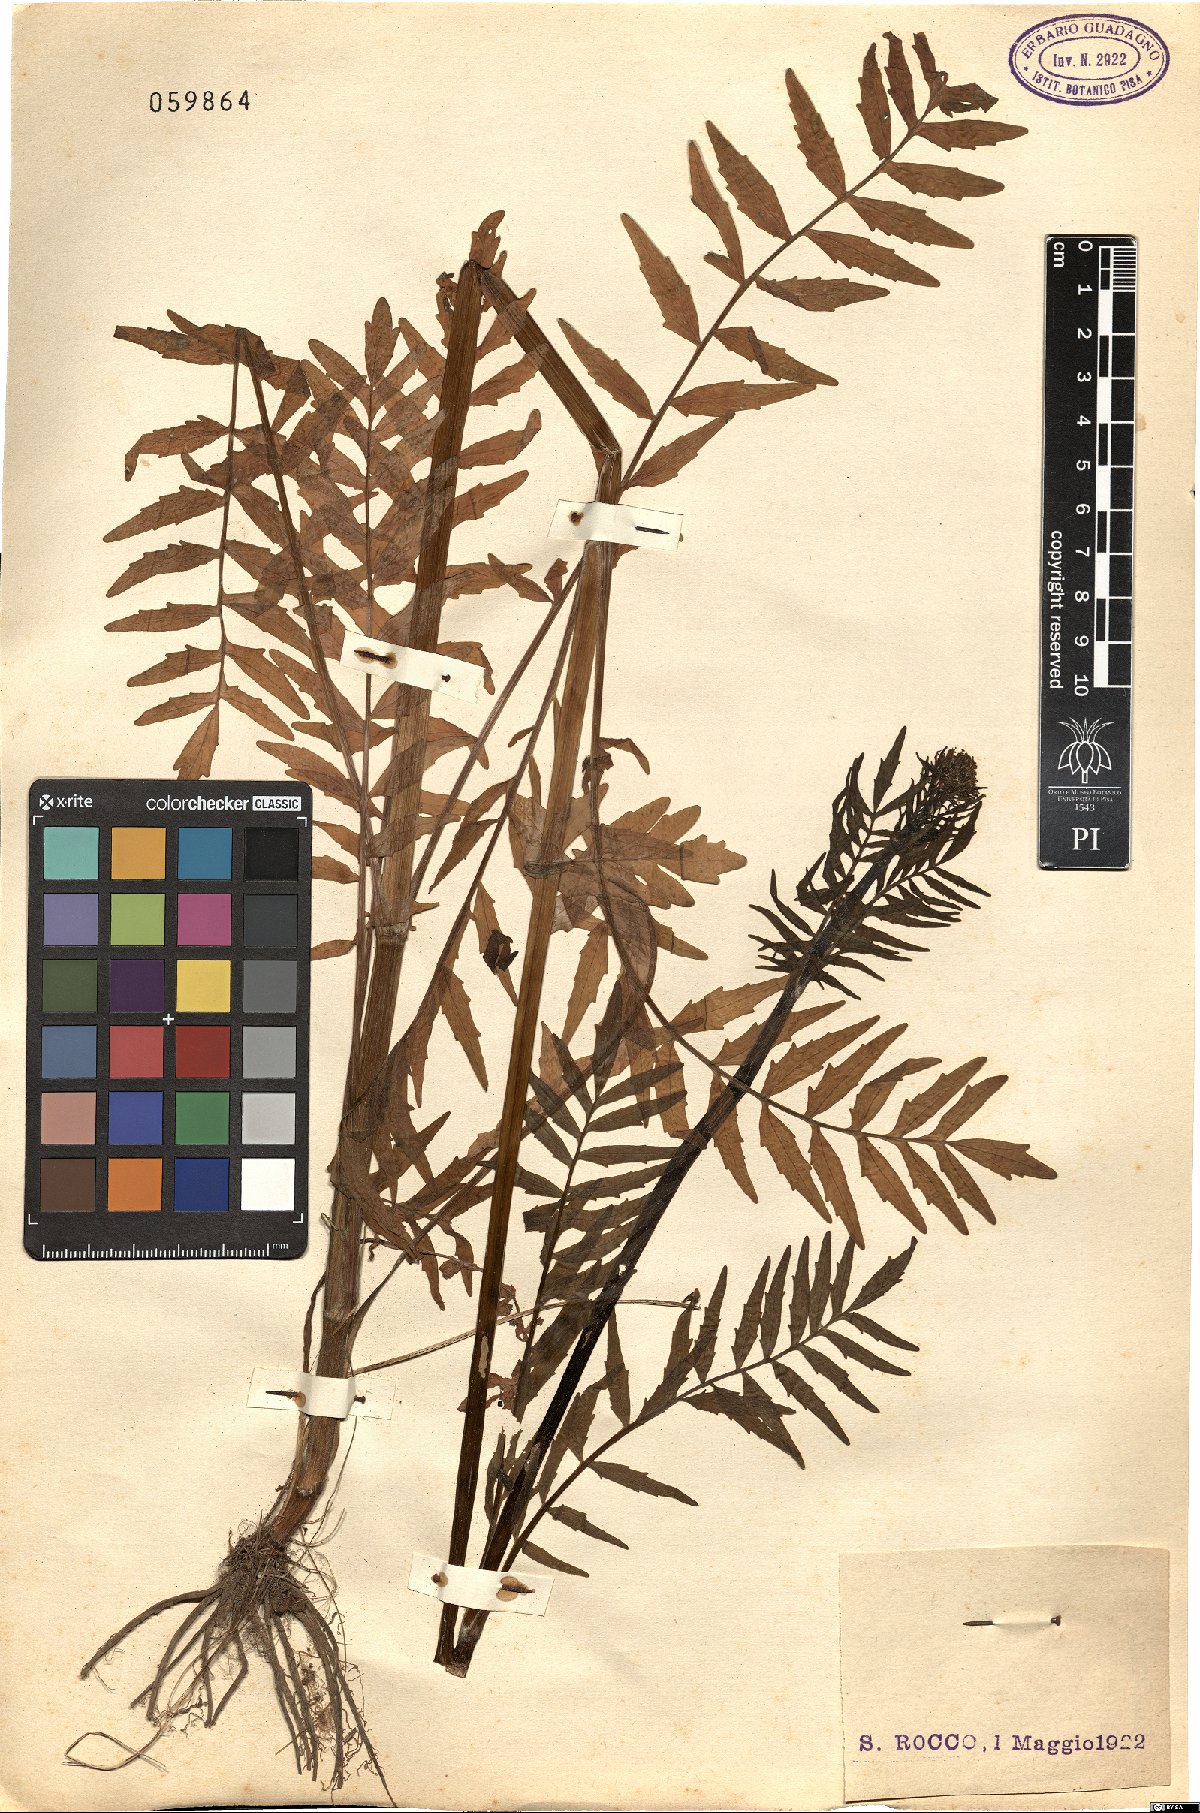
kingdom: Plantae
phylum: Tracheophyta
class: Magnoliopsida
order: Brassicales
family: Brassicaceae
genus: Cardamine
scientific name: Cardamine impatiens
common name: Narrow-leaved bitter-cress
